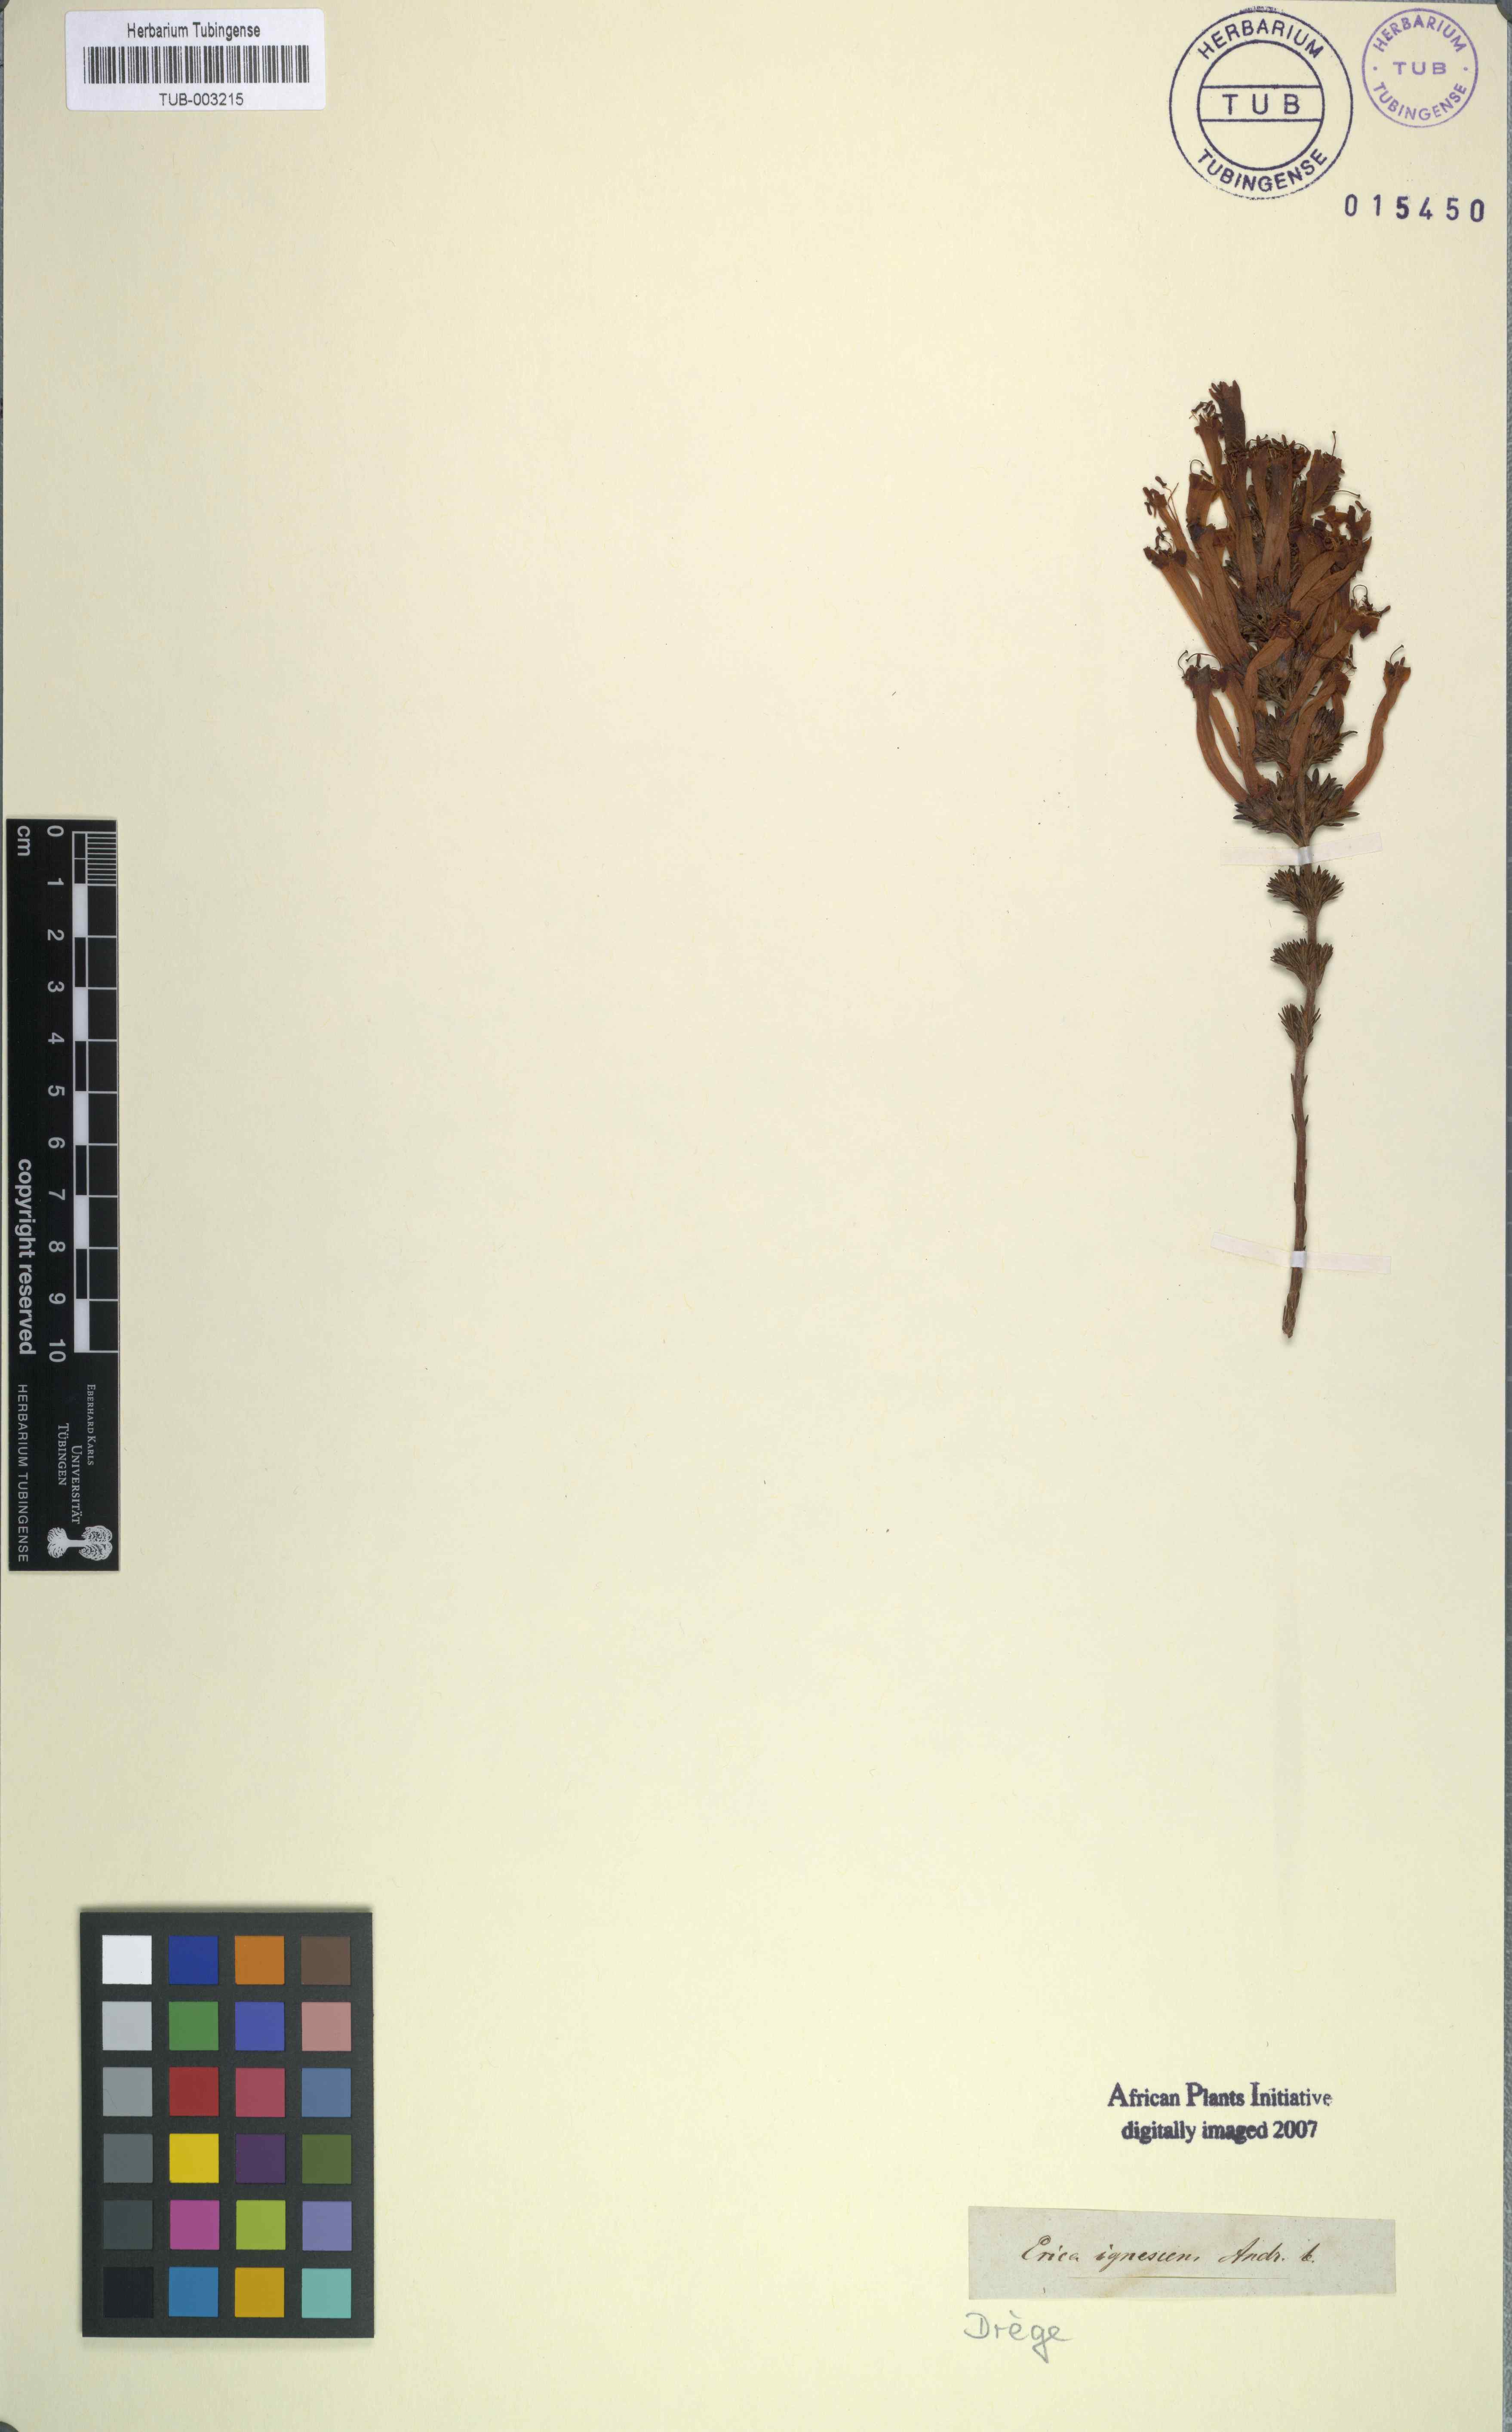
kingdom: Plantae
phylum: Tracheophyta
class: Magnoliopsida
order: Ericales
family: Ericaceae
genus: Erica
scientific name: Erica curviflora
